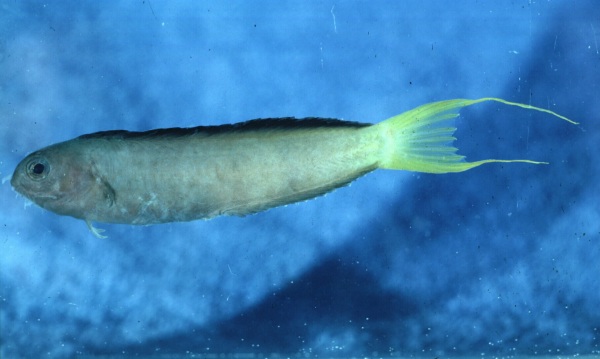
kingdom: Animalia
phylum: Chordata
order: Perciformes
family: Blenniidae
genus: Meiacanthus
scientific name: Meiacanthus mossambicus
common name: Mozambique fangblenny
